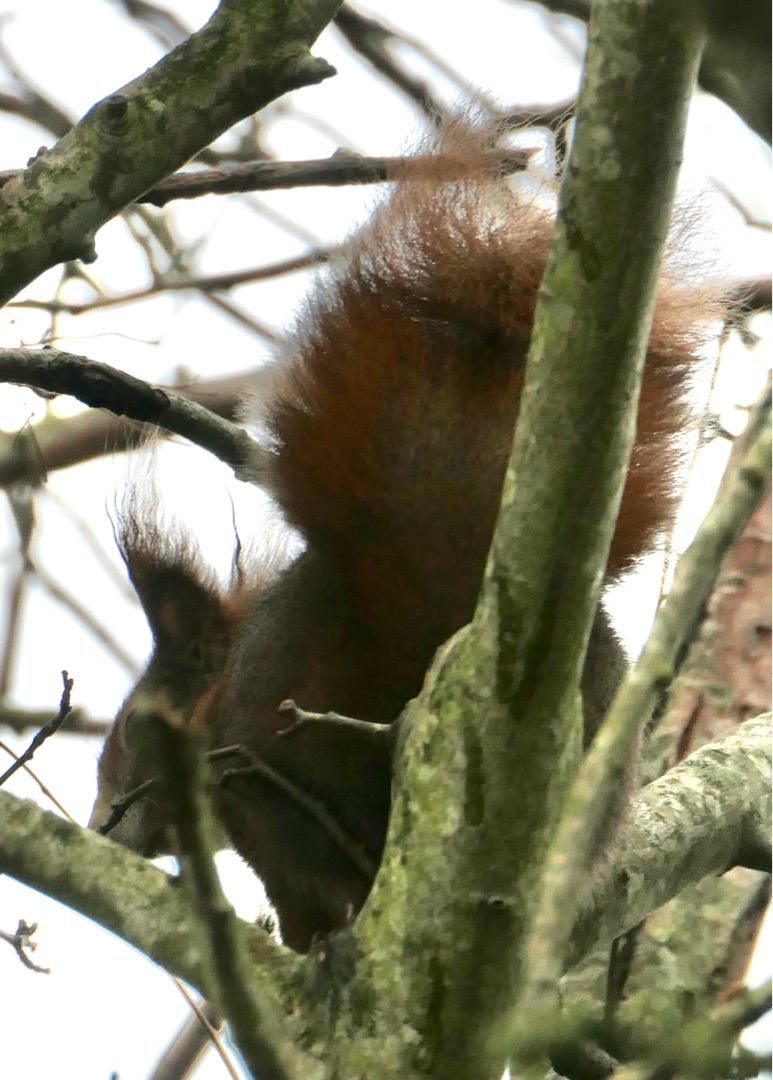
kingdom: Animalia
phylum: Chordata
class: Mammalia
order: Rodentia
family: Sciuridae
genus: Sciurus
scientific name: Sciurus vulgaris
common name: Egern
